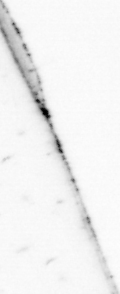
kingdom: Animalia
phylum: Chaetognatha
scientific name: Chaetognatha
